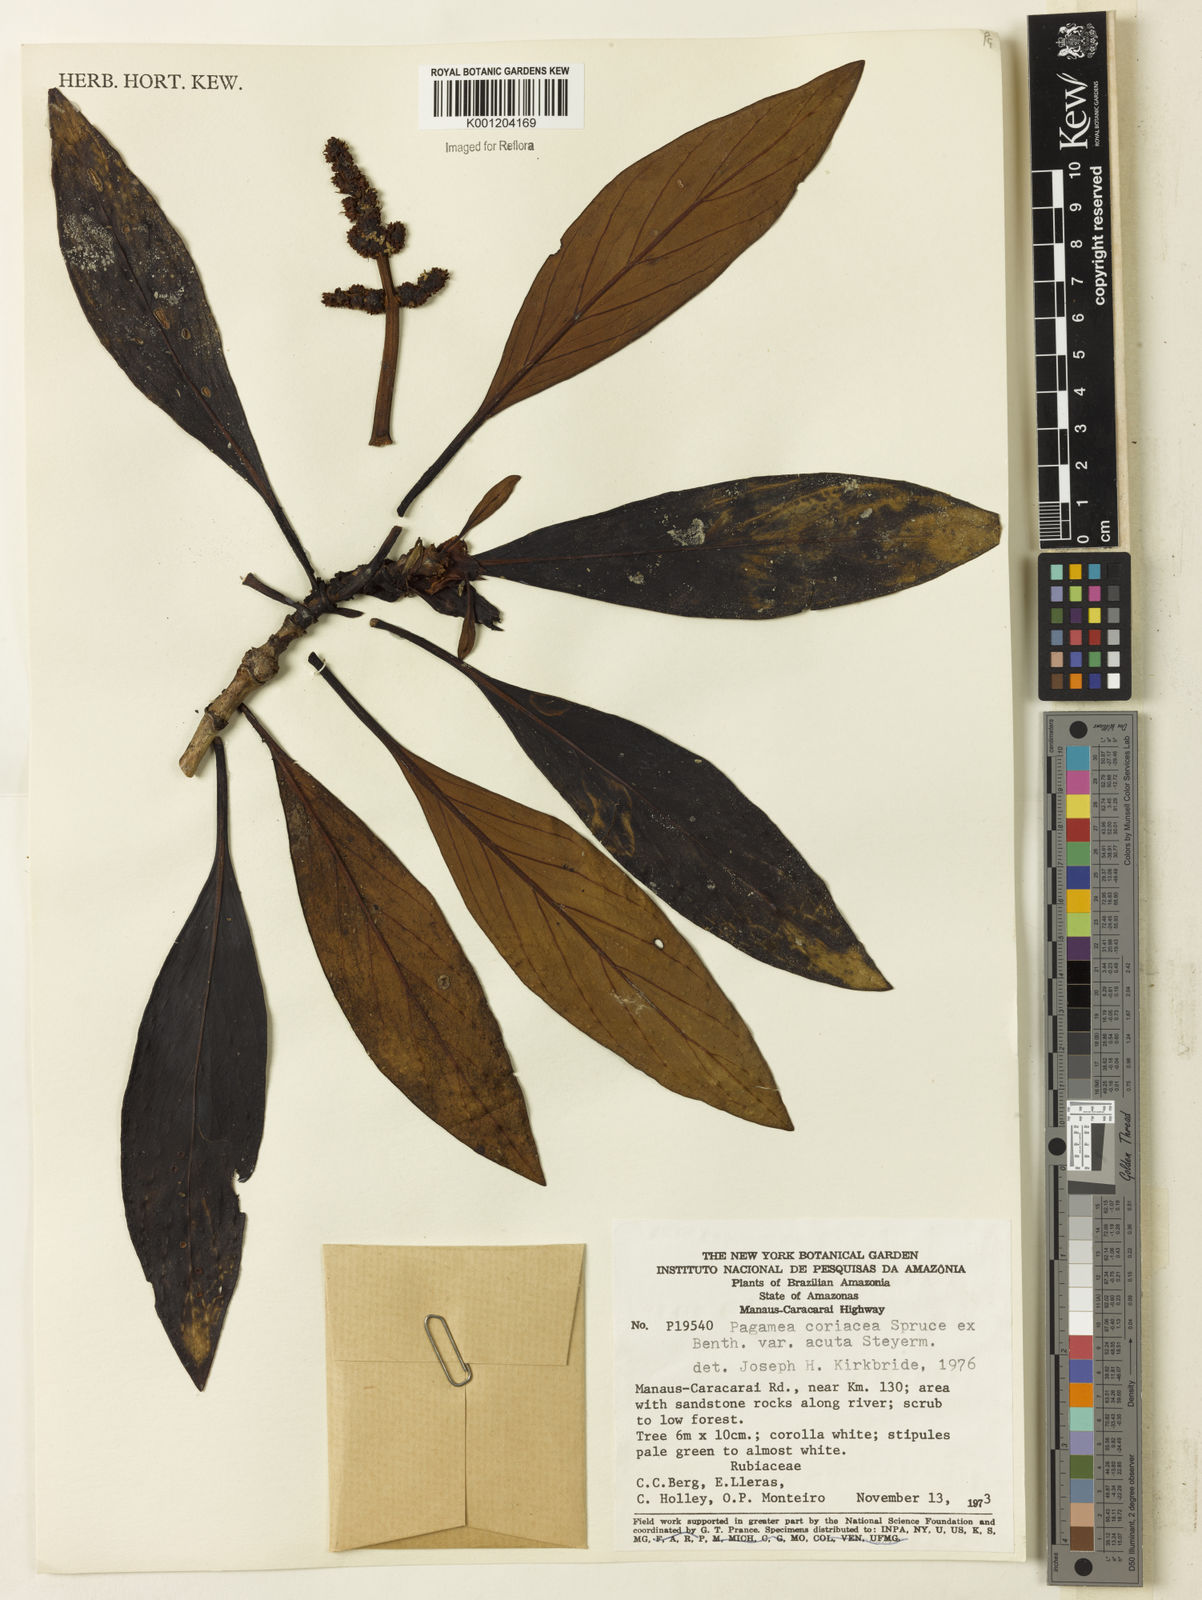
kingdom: Plantae
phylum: Tracheophyta
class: Magnoliopsida
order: Gentianales
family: Rubiaceae
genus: Pagamea
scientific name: Pagamea coriacea
